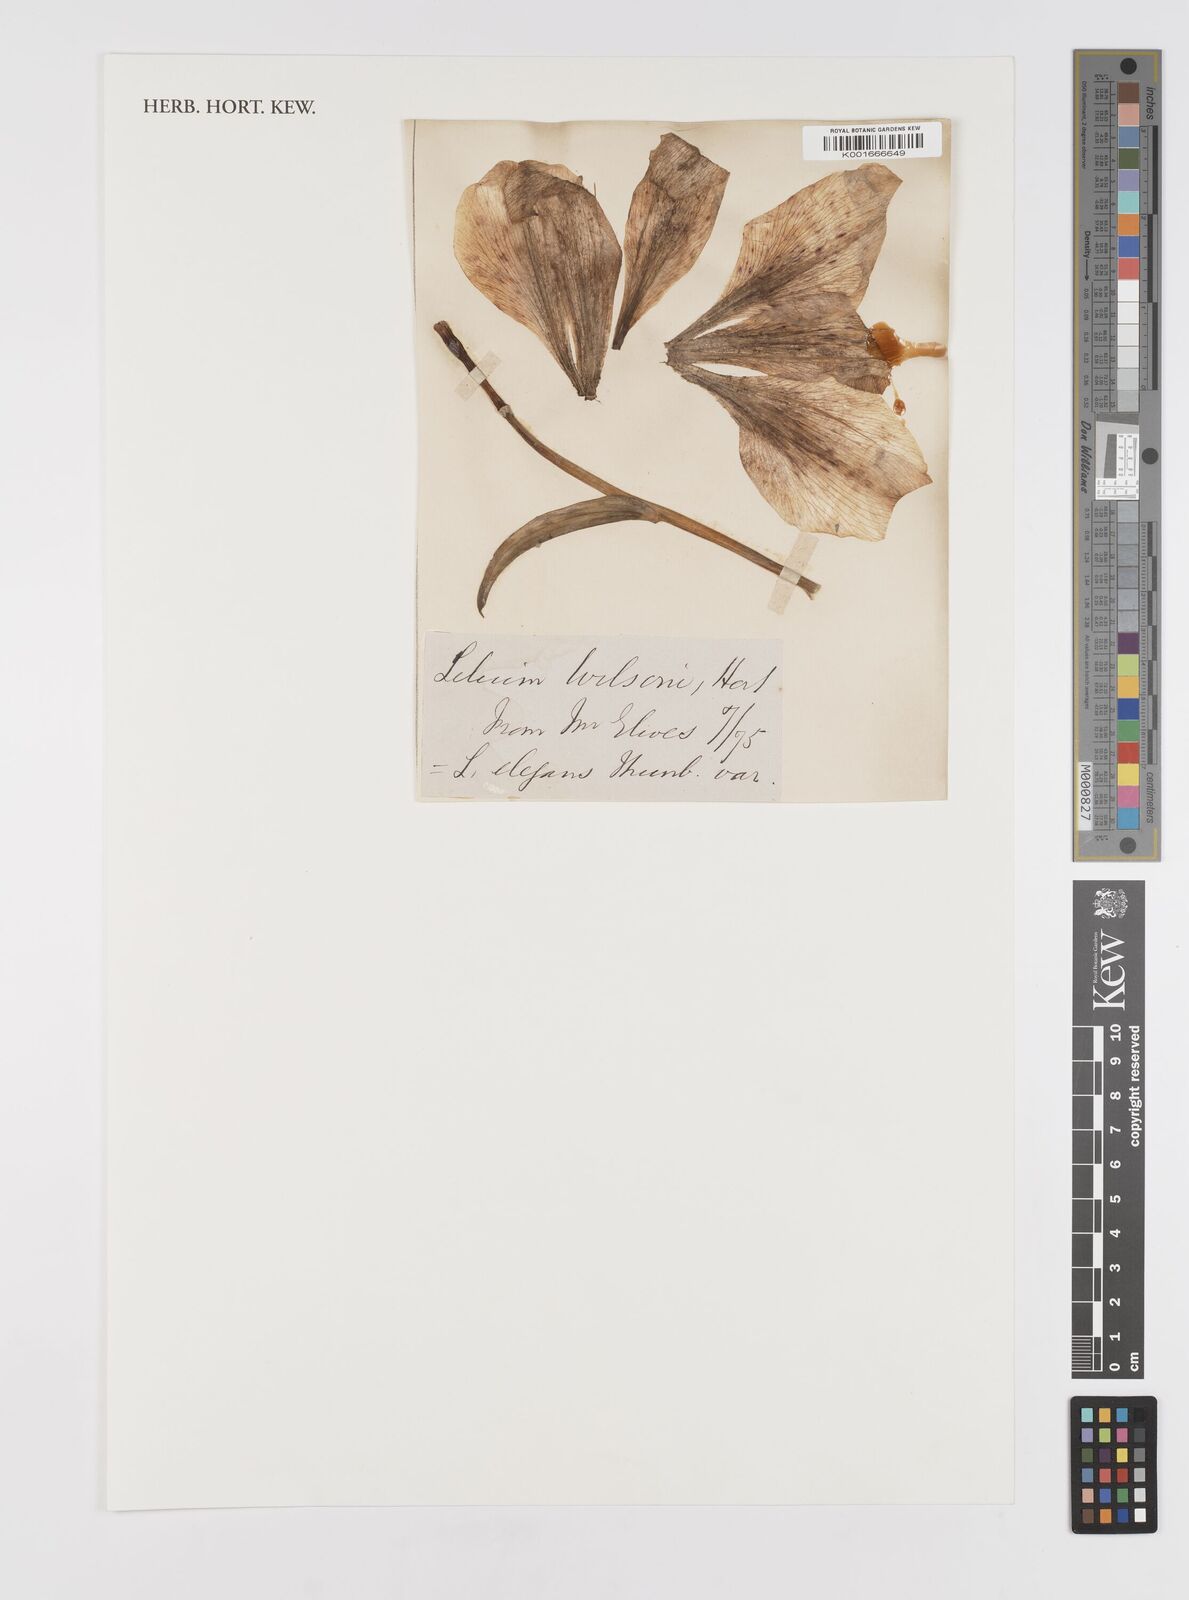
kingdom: Plantae
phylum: Tracheophyta
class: Liliopsida
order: Liliales
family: Liliaceae
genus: Lilium
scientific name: Lilium pensylvanicum
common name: Candlestick lily
